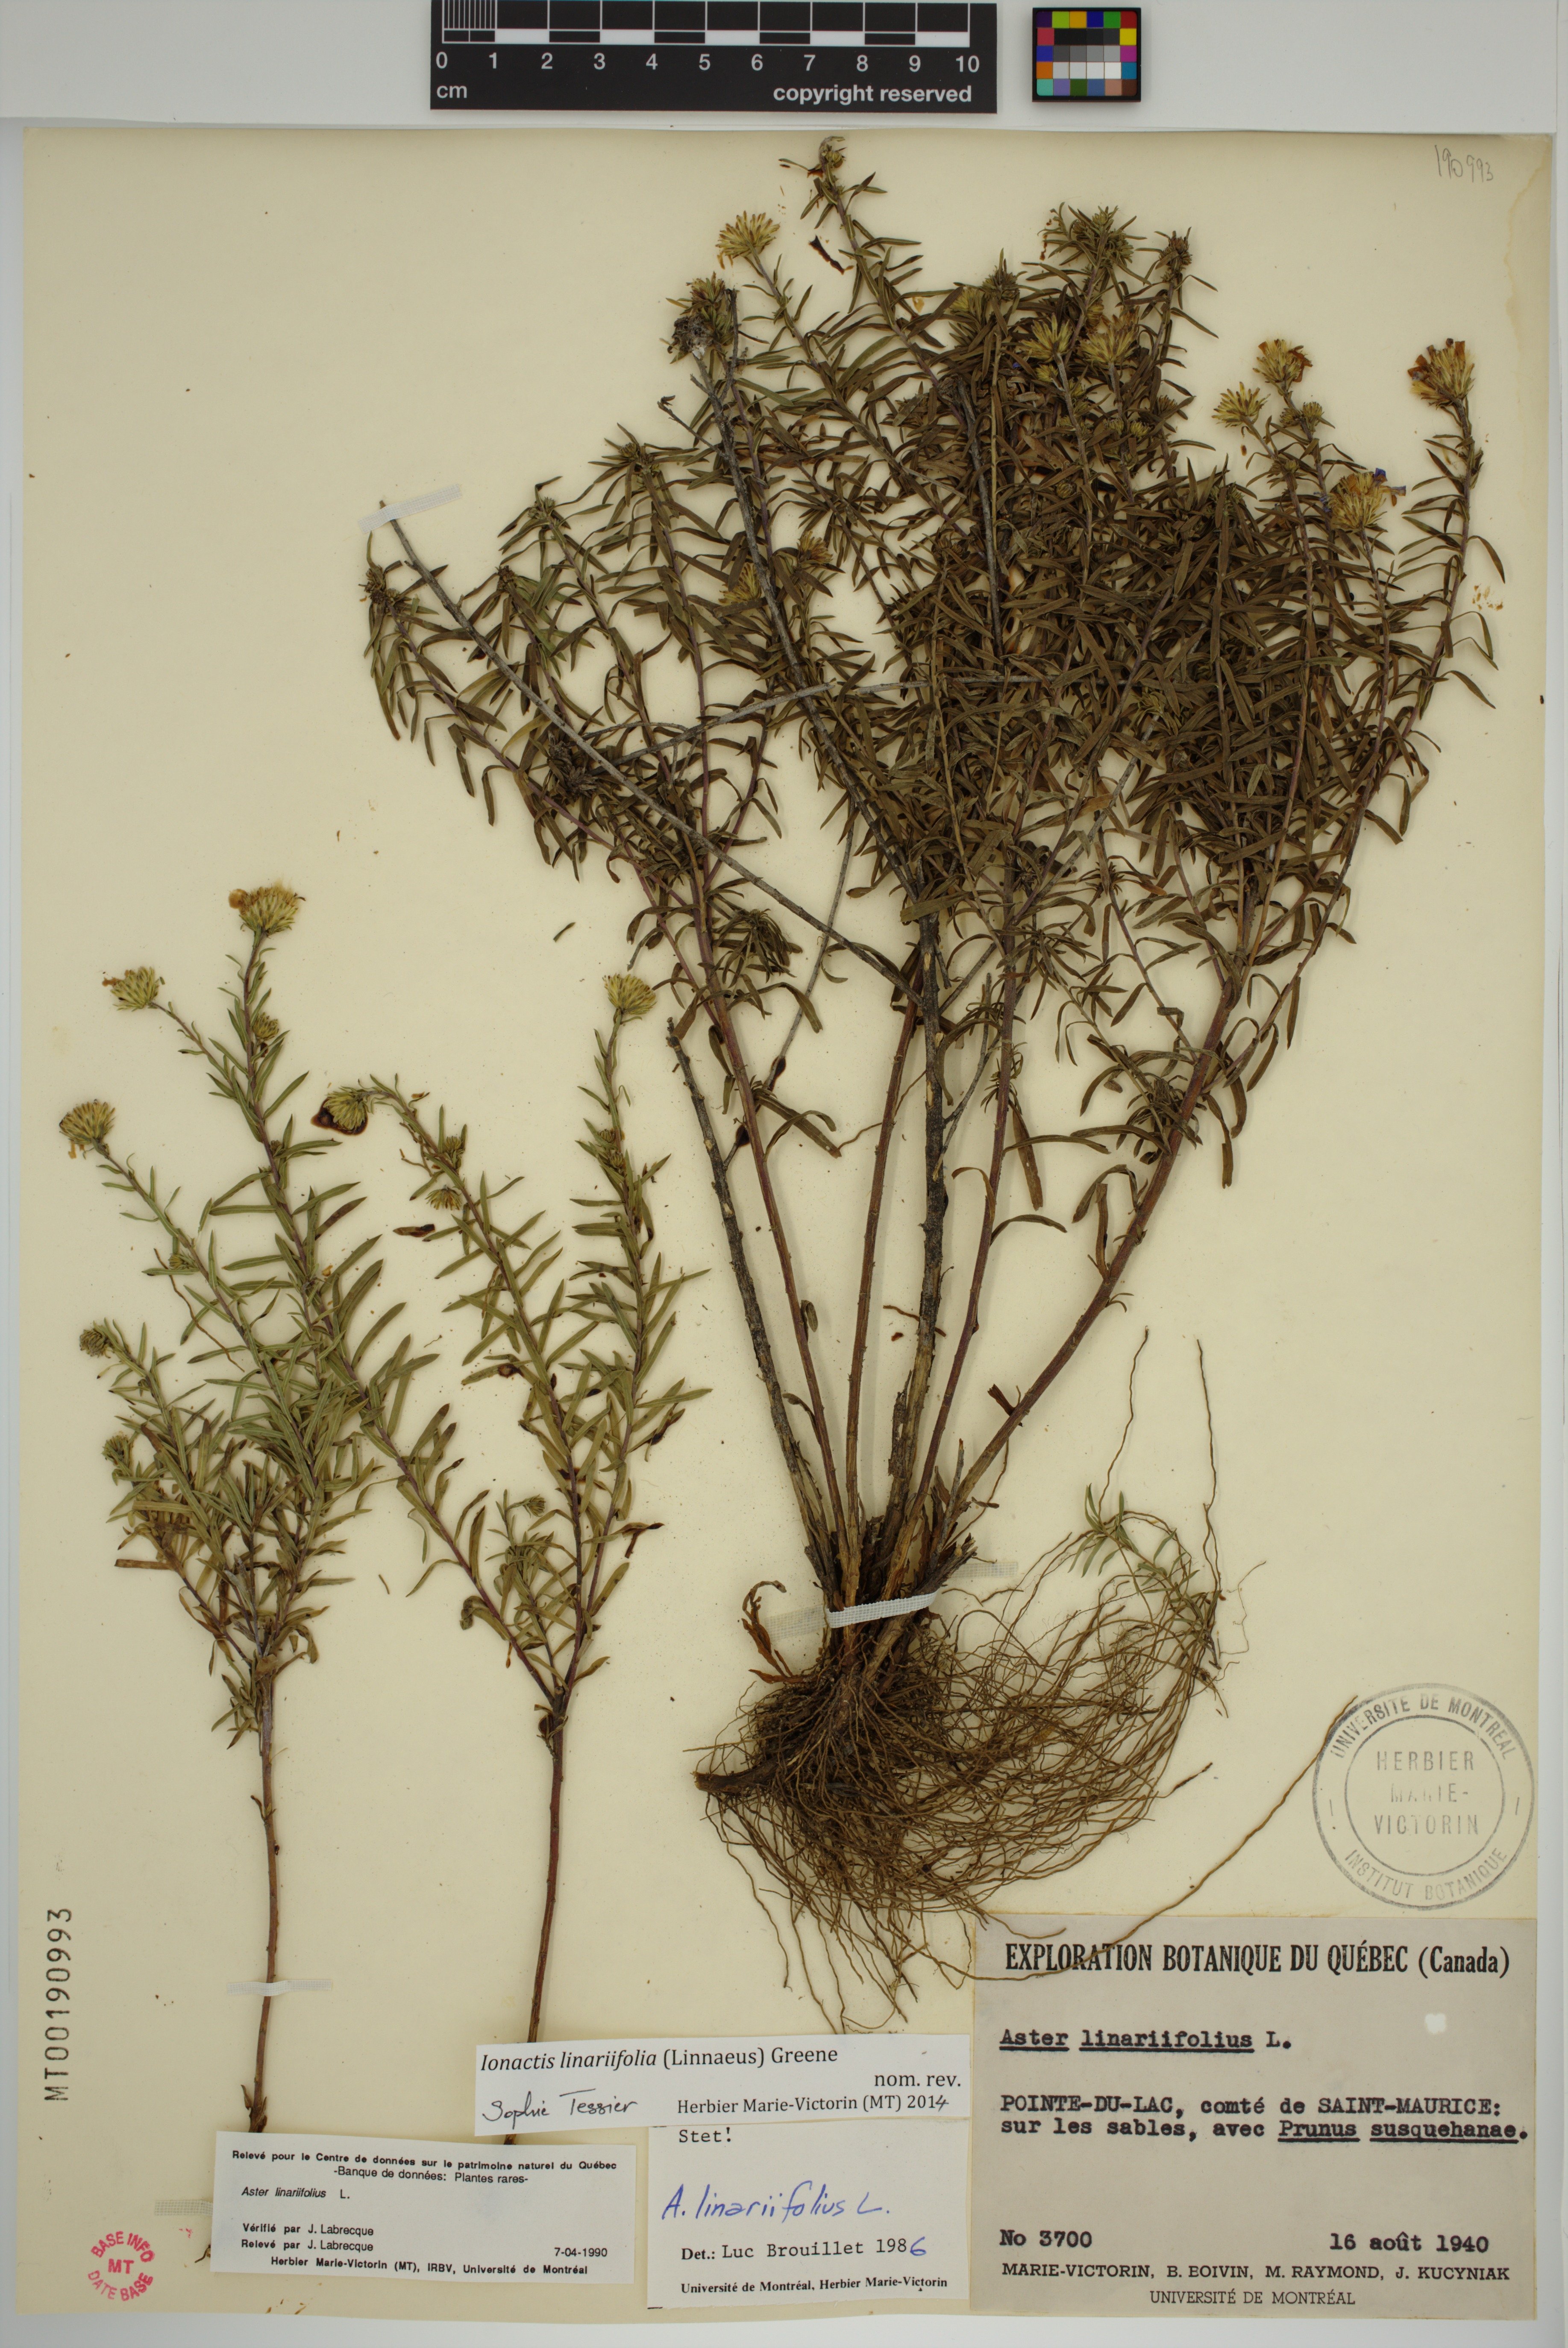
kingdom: Plantae
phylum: Tracheophyta
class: Magnoliopsida
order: Asterales
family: Asteraceae
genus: Ionactis
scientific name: Ionactis linariifolia
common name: Flax-leaf aster
